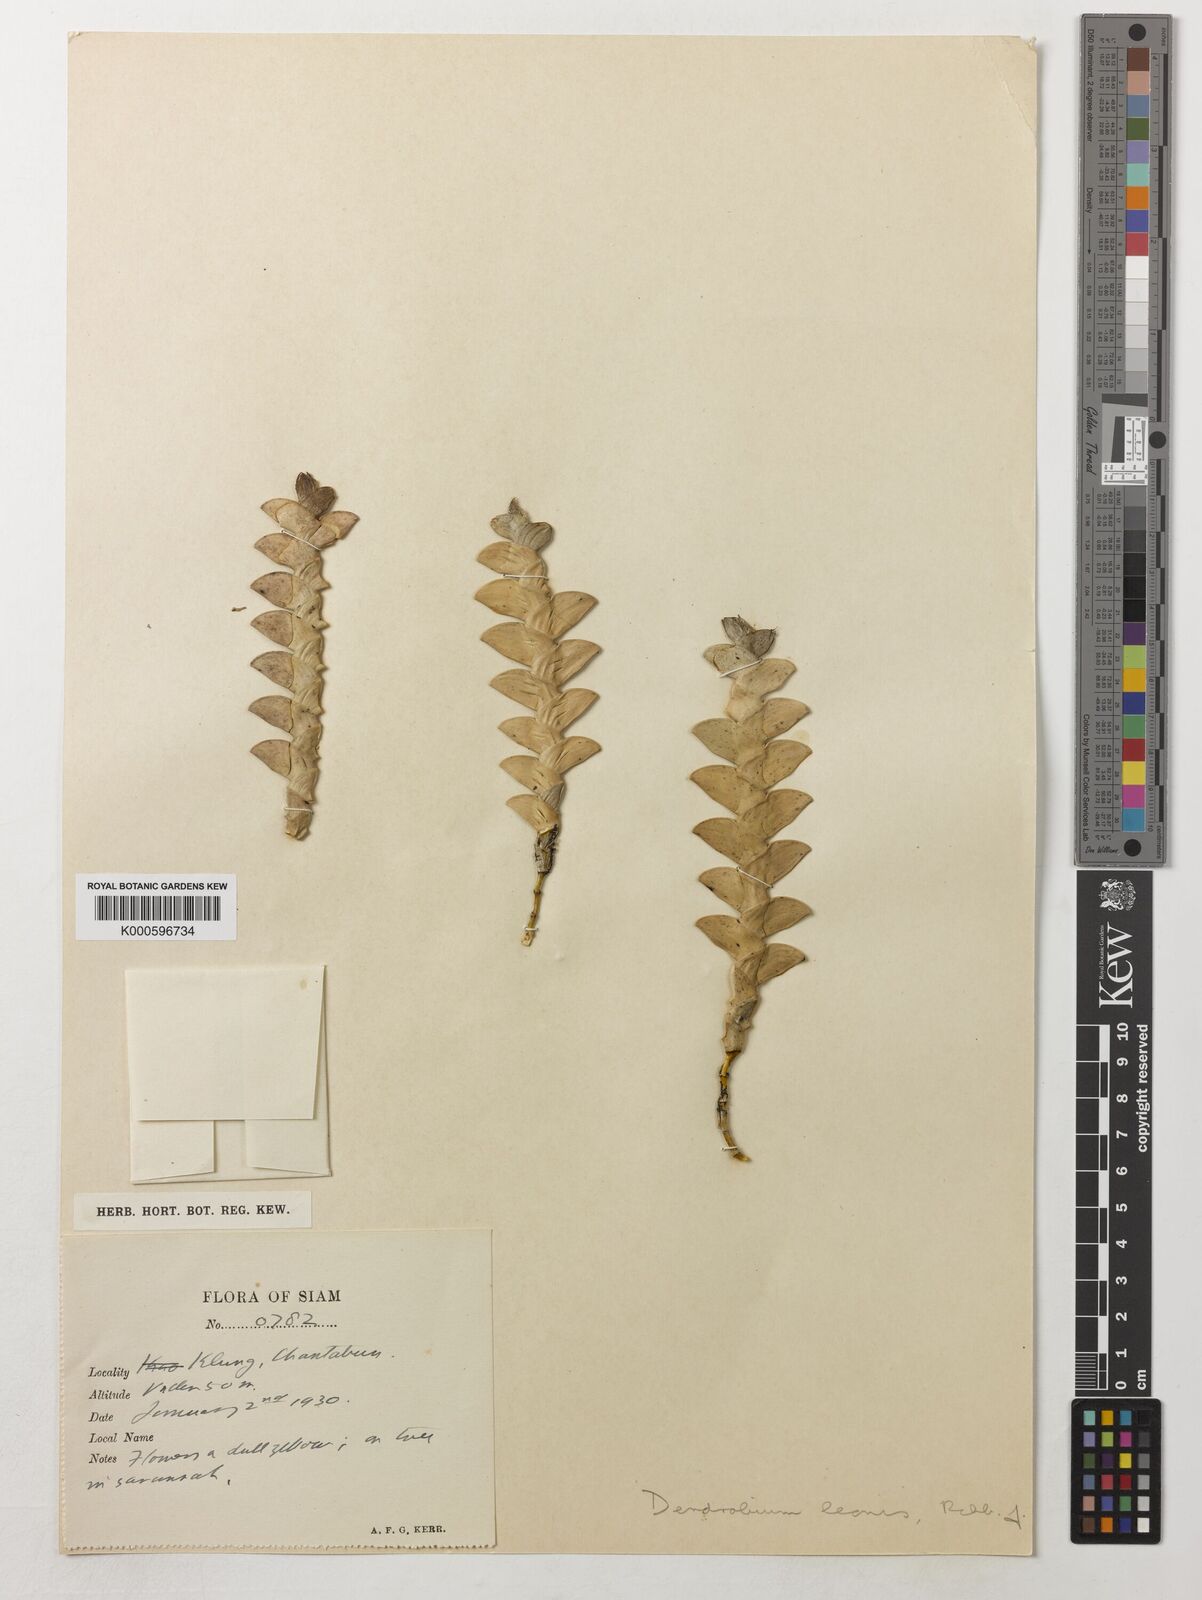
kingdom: Plantae
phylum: Tracheophyta
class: Liliopsida
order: Asparagales
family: Orchidaceae
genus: Dendrobium
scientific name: Dendrobium leonis
